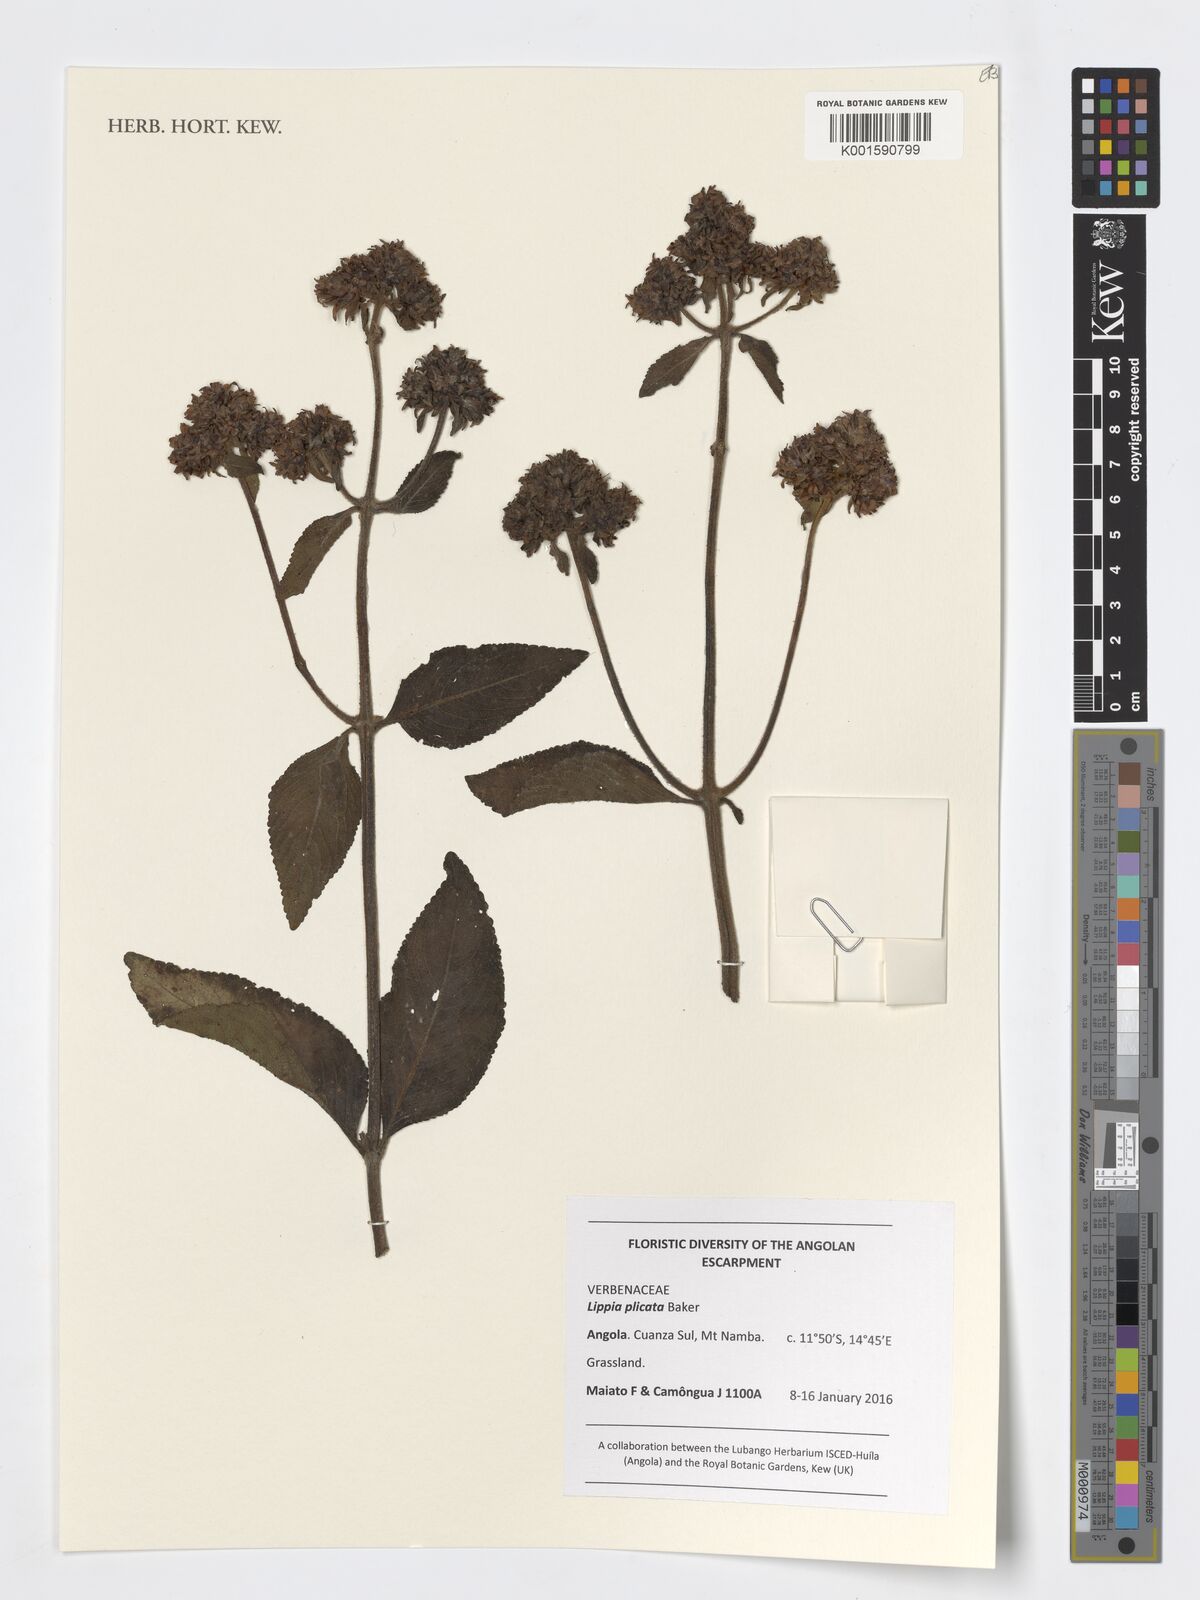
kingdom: Plantae
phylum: Tracheophyta
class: Magnoliopsida
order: Lamiales
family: Verbenaceae
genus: Lippia
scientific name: Lippia plicata
